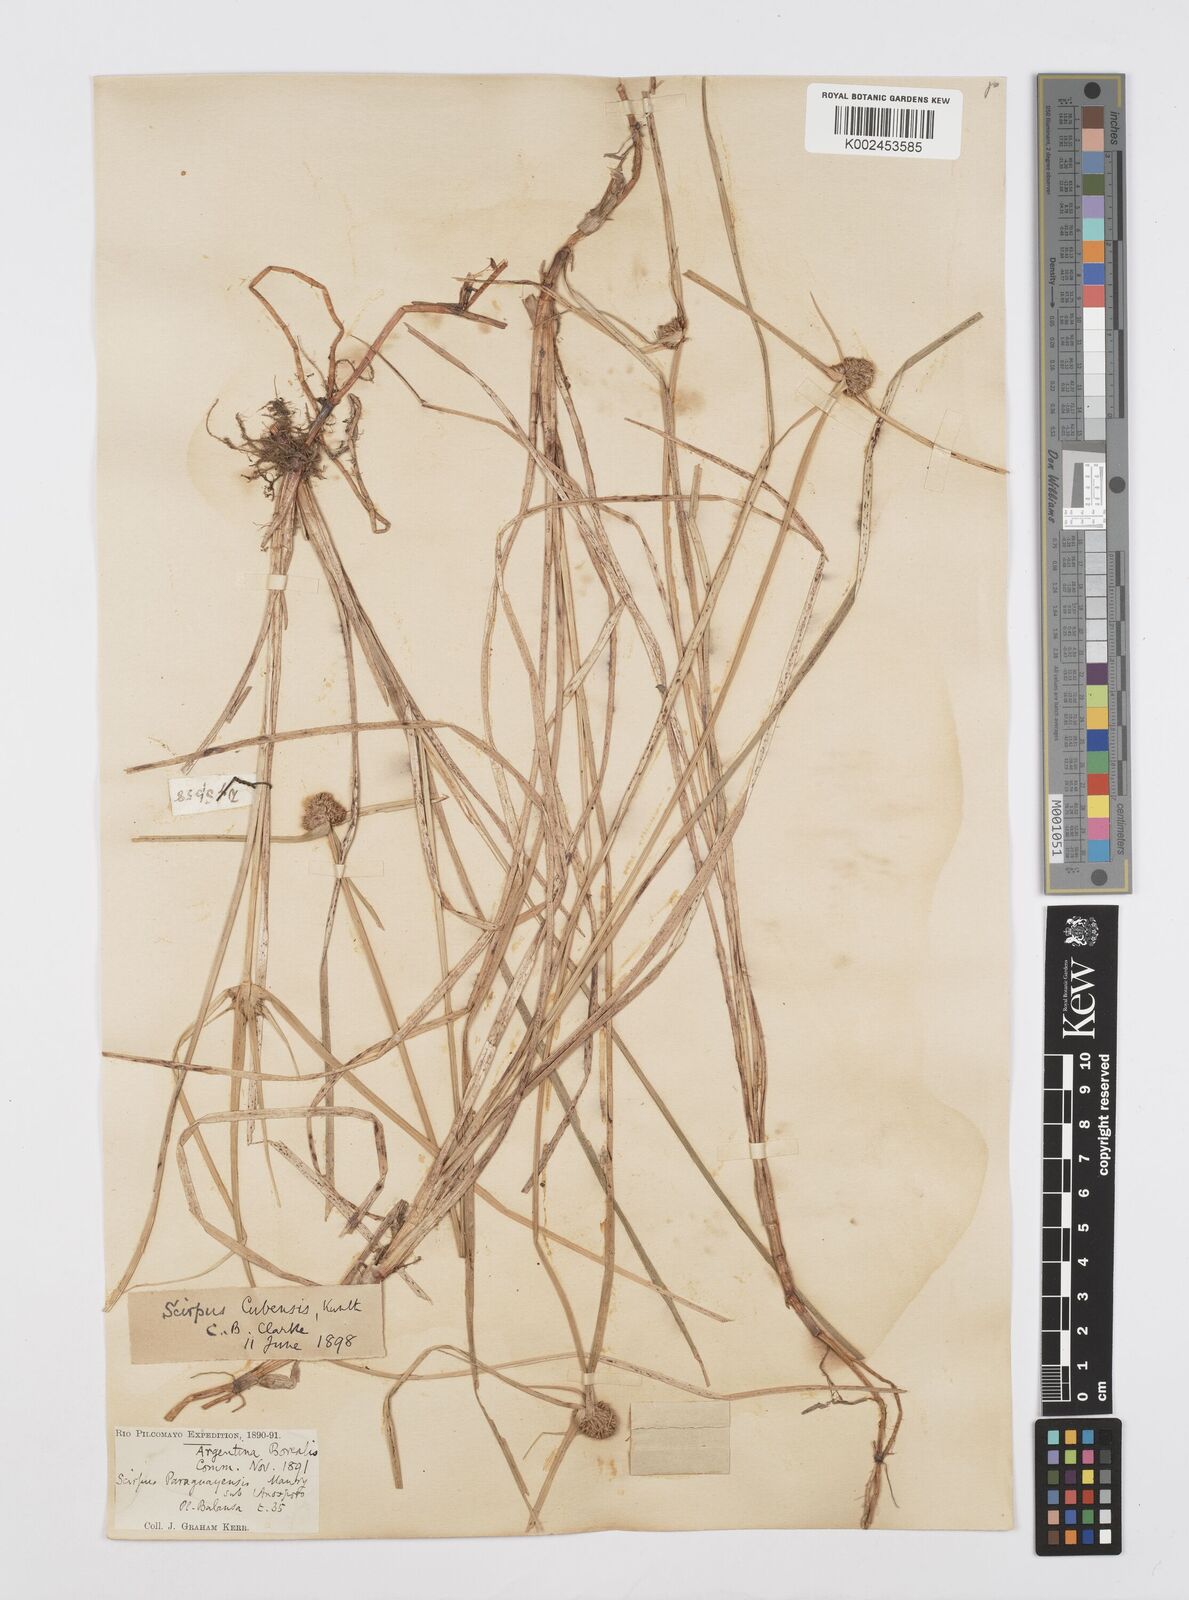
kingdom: Plantae
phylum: Tracheophyta
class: Liliopsida
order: Poales
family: Cyperaceae
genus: Cyperus
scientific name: Cyperus elegans
